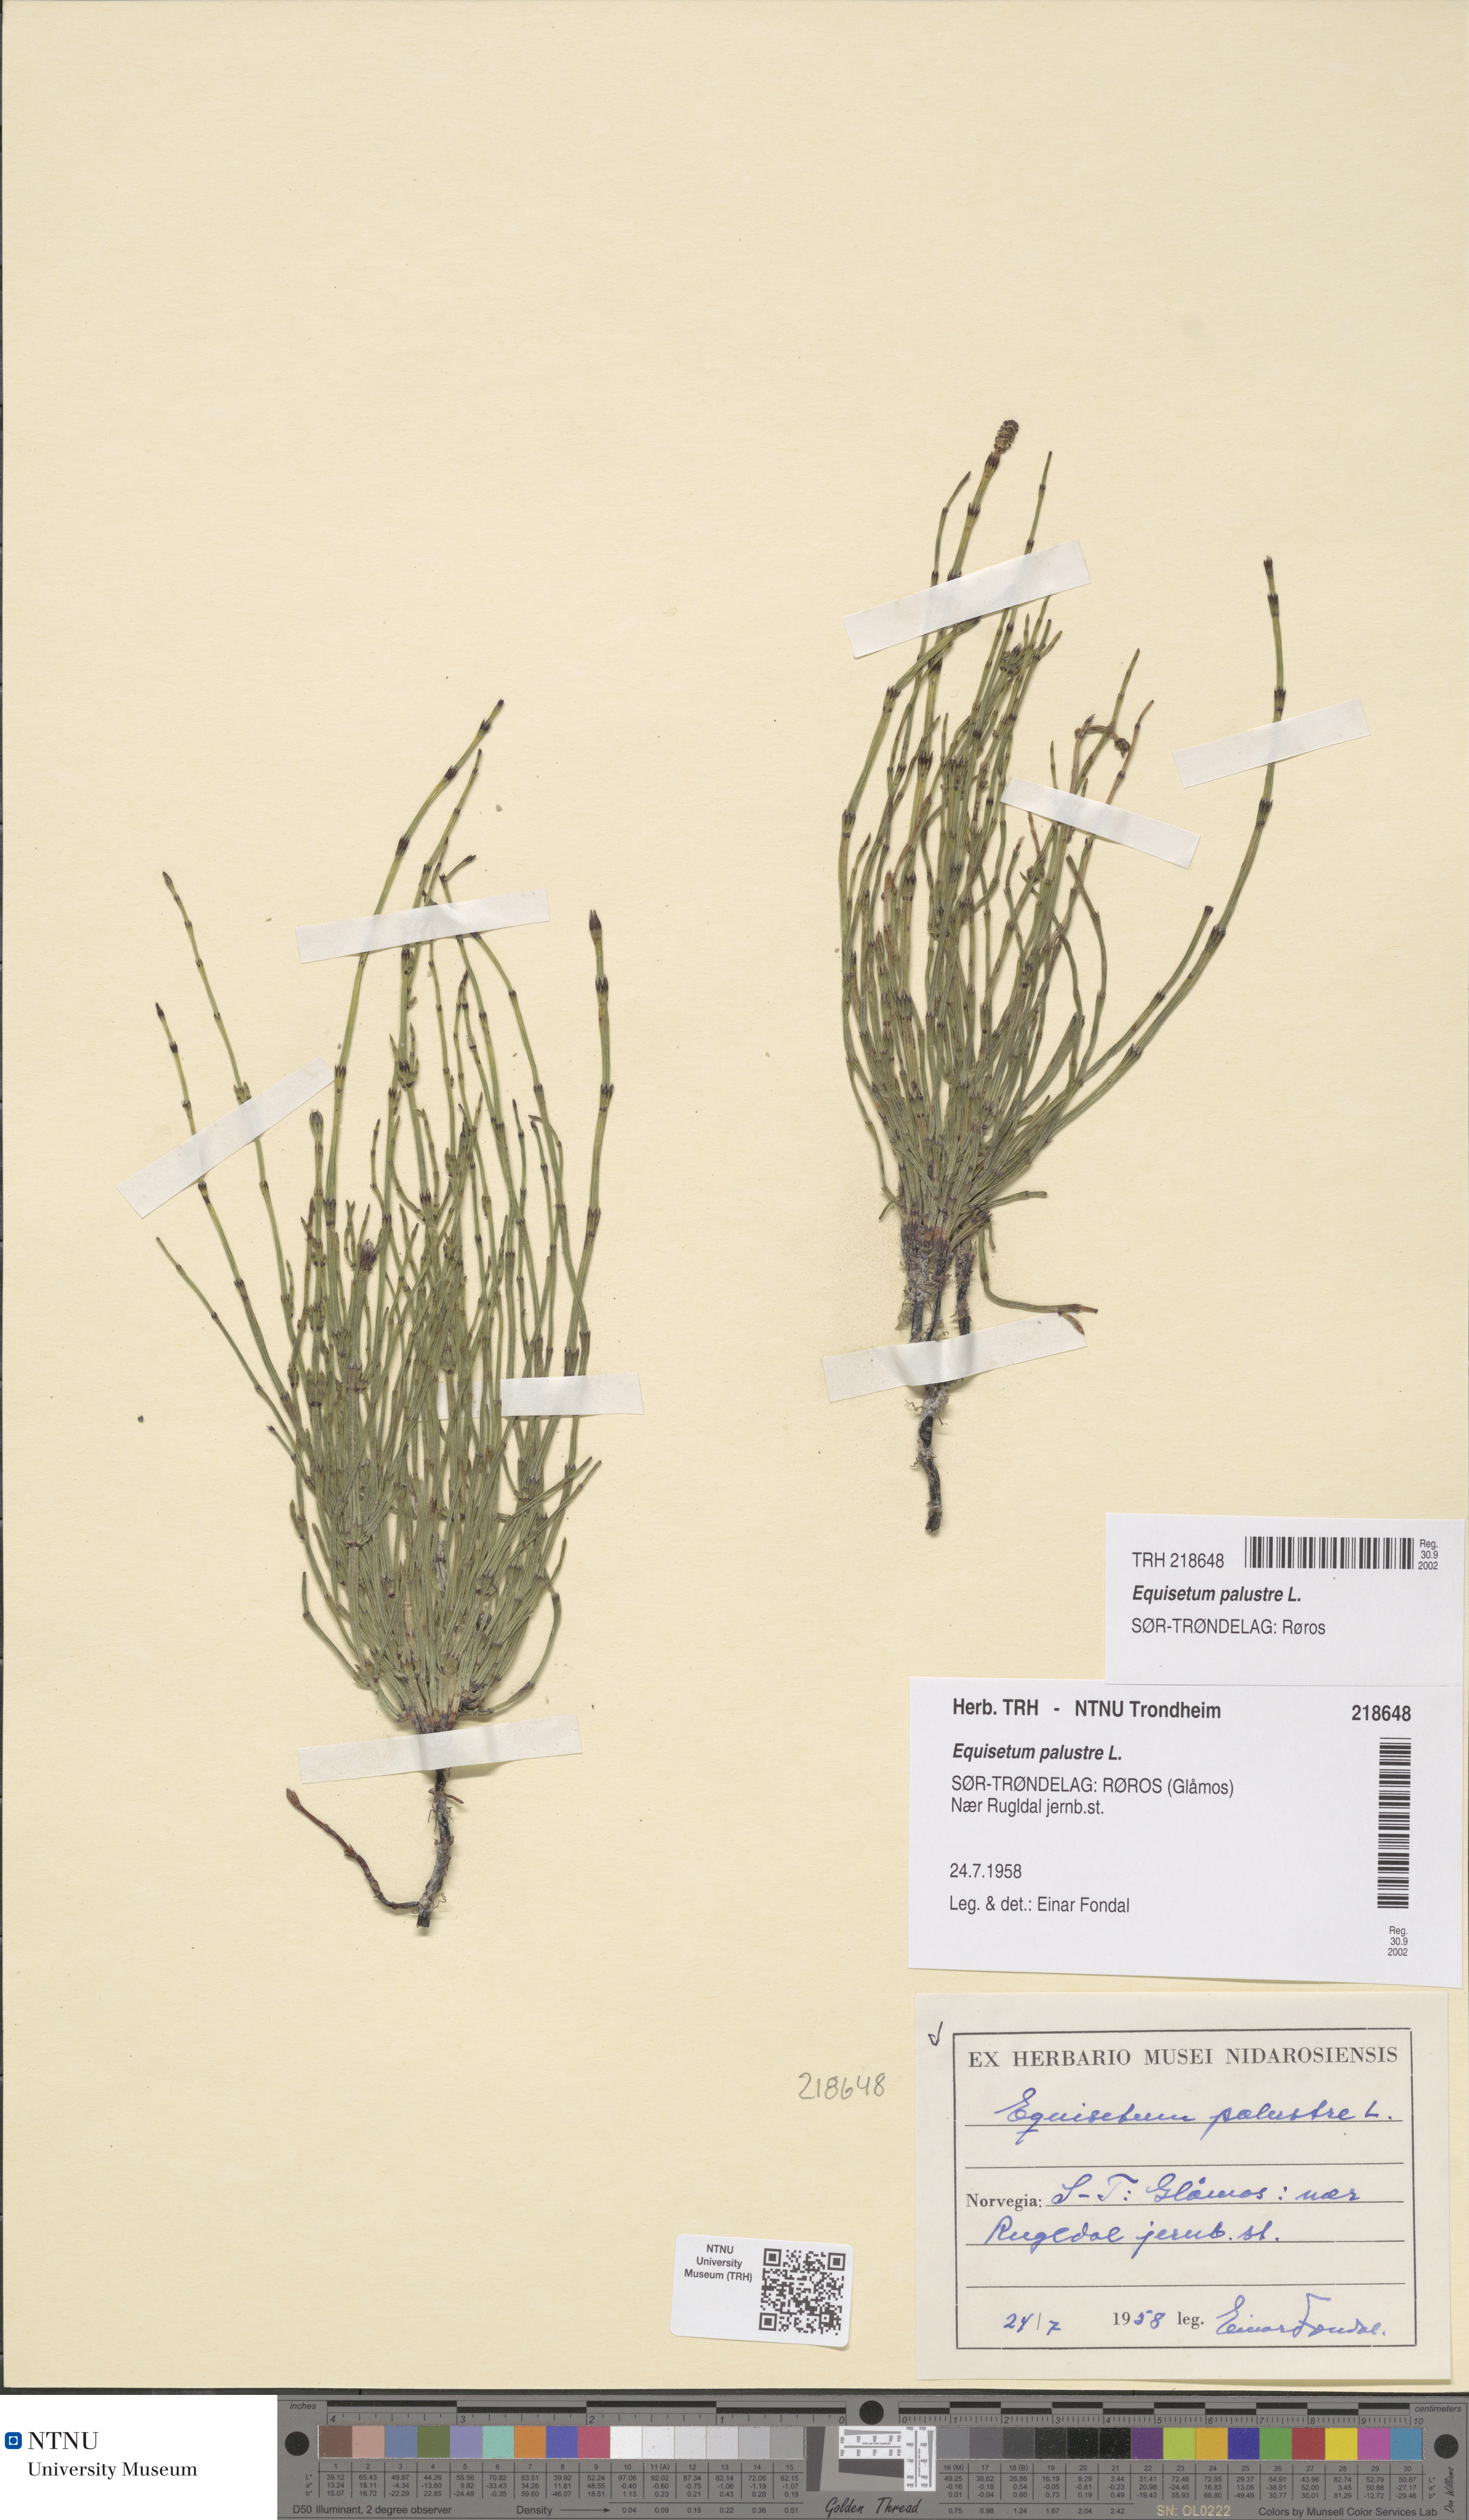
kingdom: Plantae
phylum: Tracheophyta
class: Polypodiopsida
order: Equisetales
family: Equisetaceae
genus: Equisetum
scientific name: Equisetum palustre
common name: Marsh horsetail
